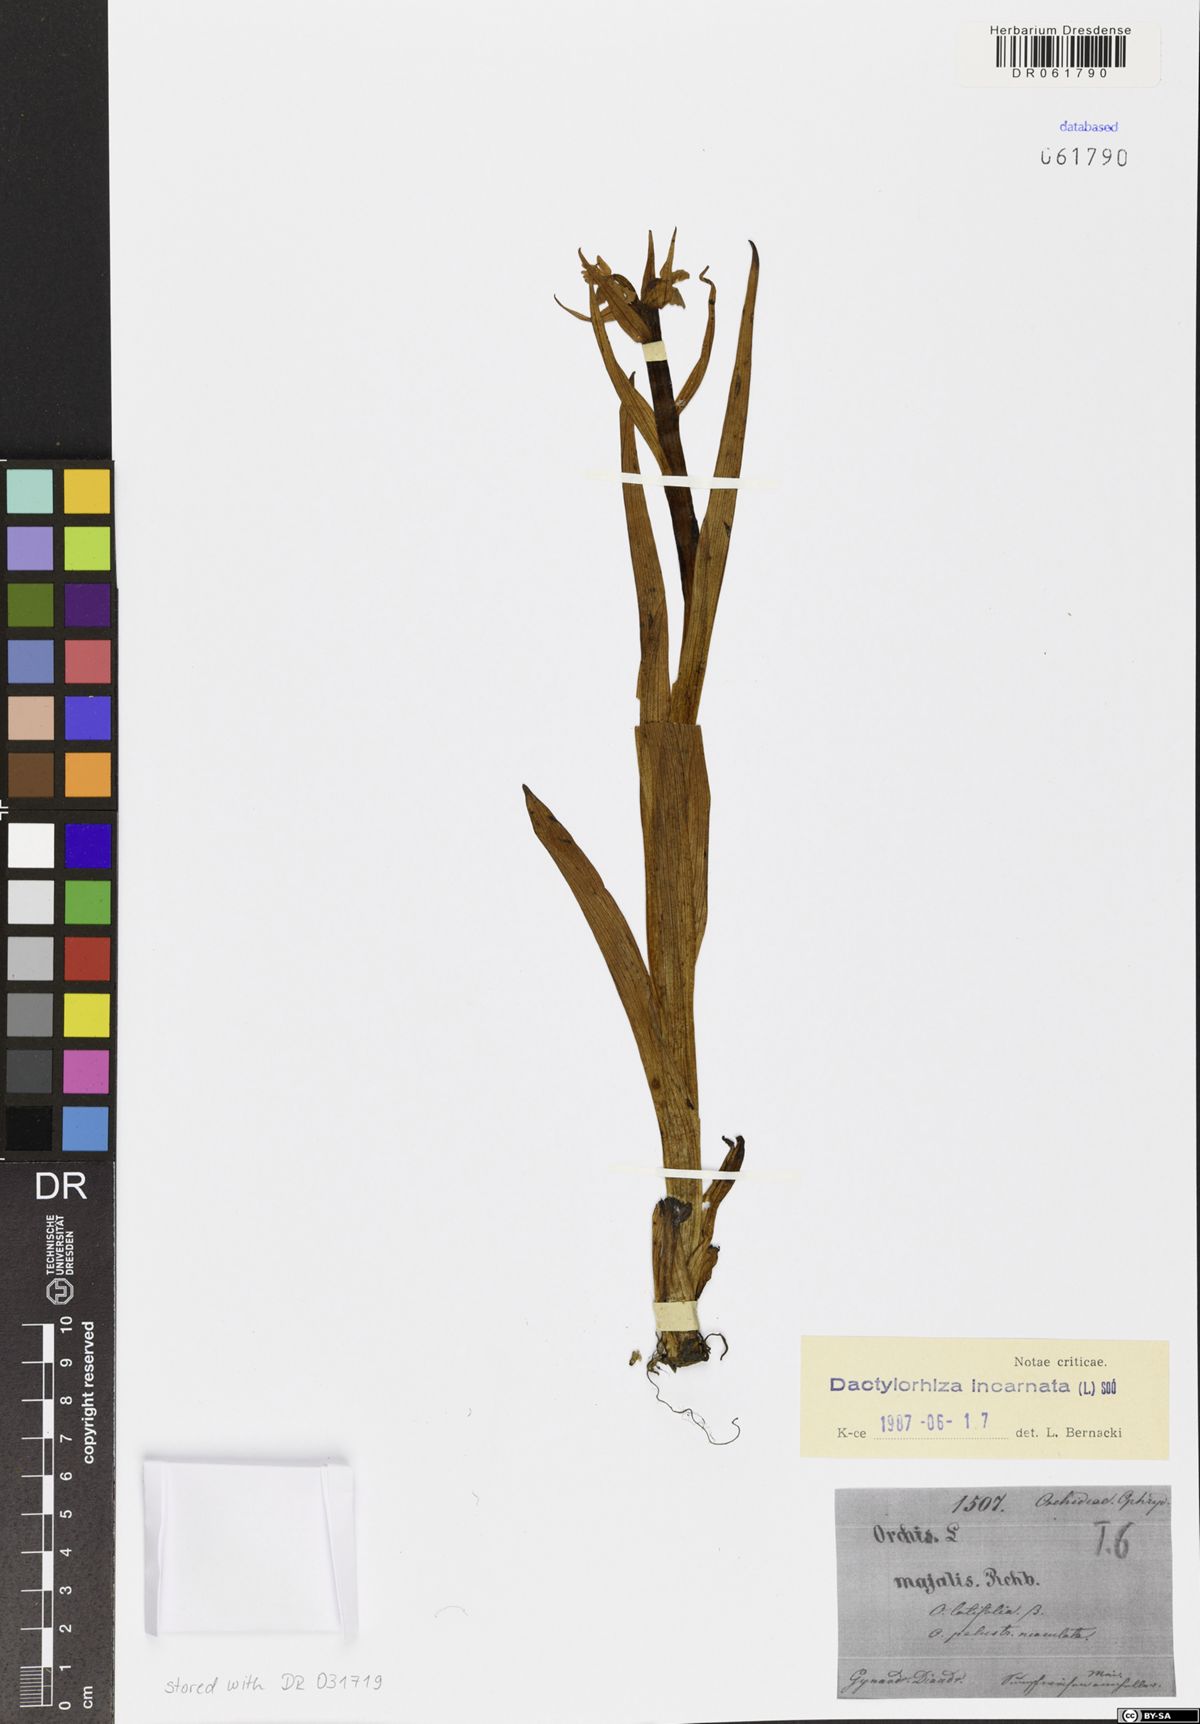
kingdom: Plantae
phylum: Tracheophyta
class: Liliopsida
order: Asparagales
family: Orchidaceae
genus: Dactylorhiza
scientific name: Dactylorhiza incarnata
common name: Early marsh-orchid
